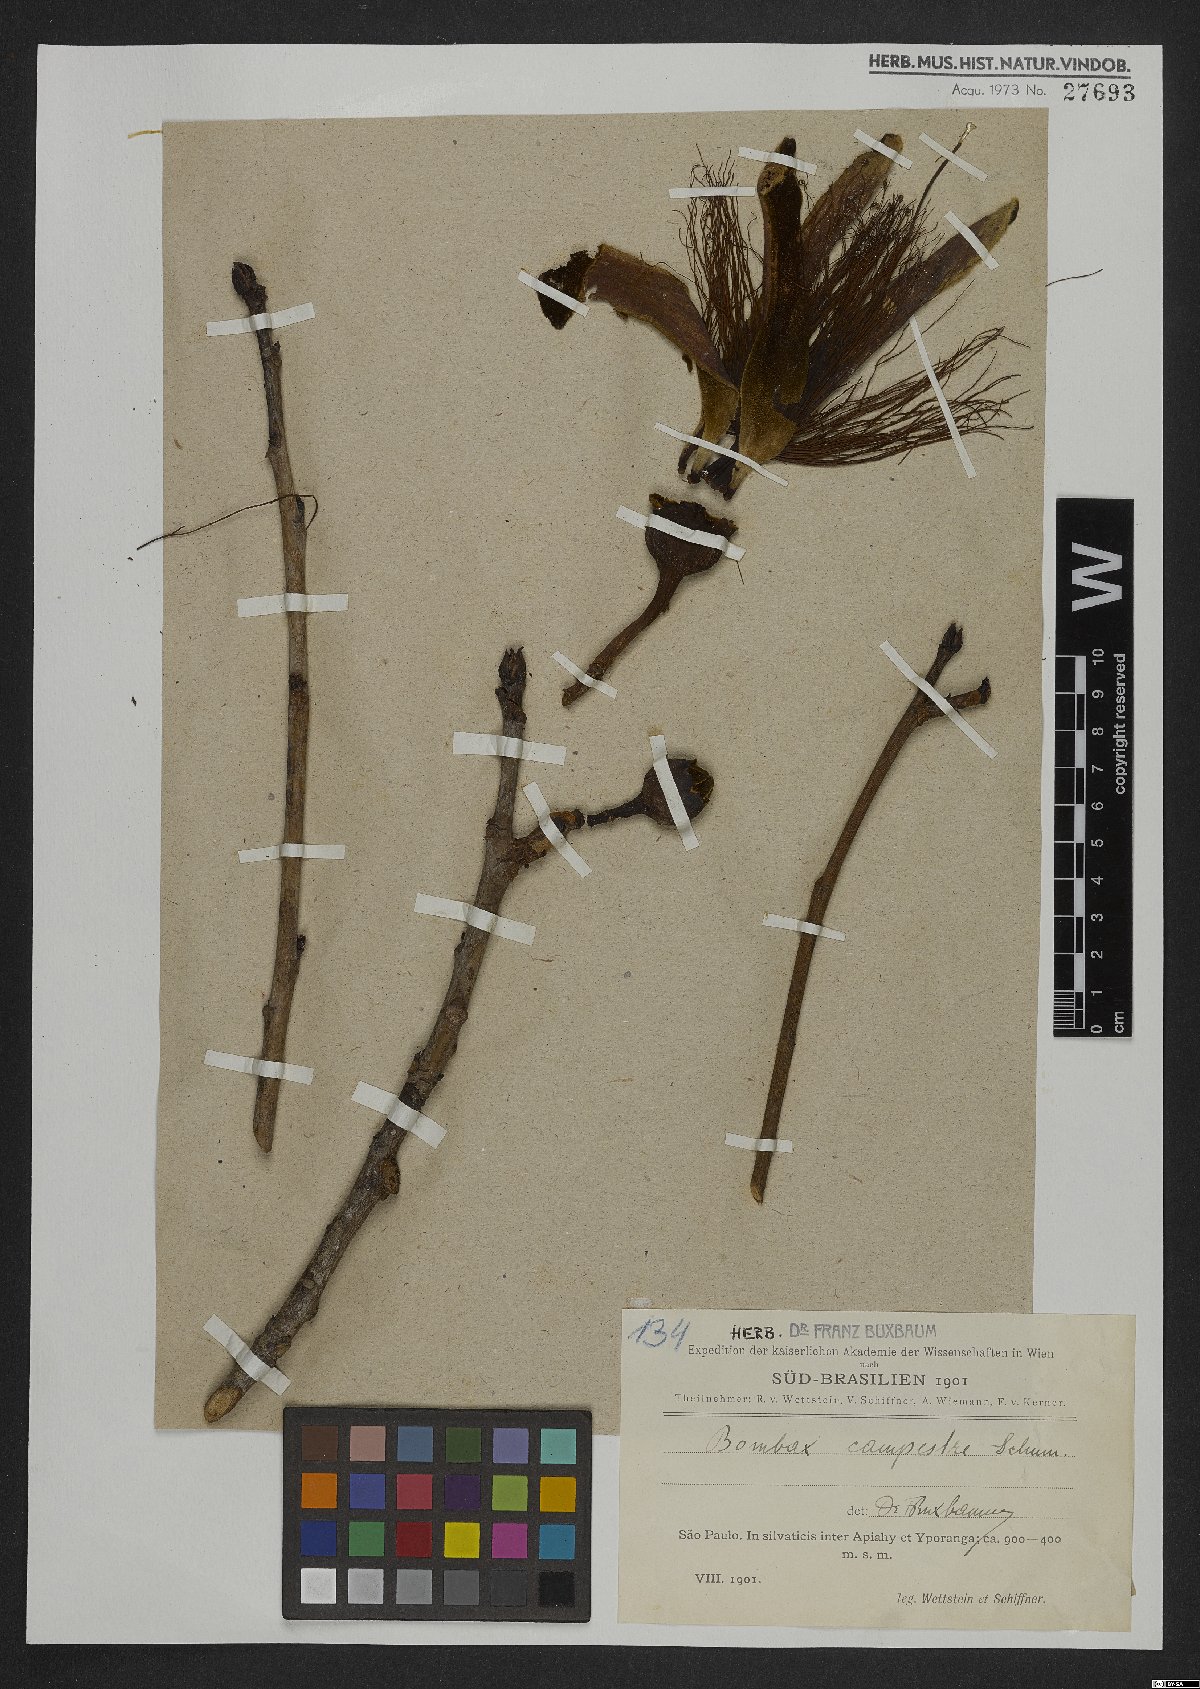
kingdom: Plantae
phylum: Tracheophyta
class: Magnoliopsida
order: Malvales
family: Malvaceae
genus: Pseudobombax
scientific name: Pseudobombax campestre
